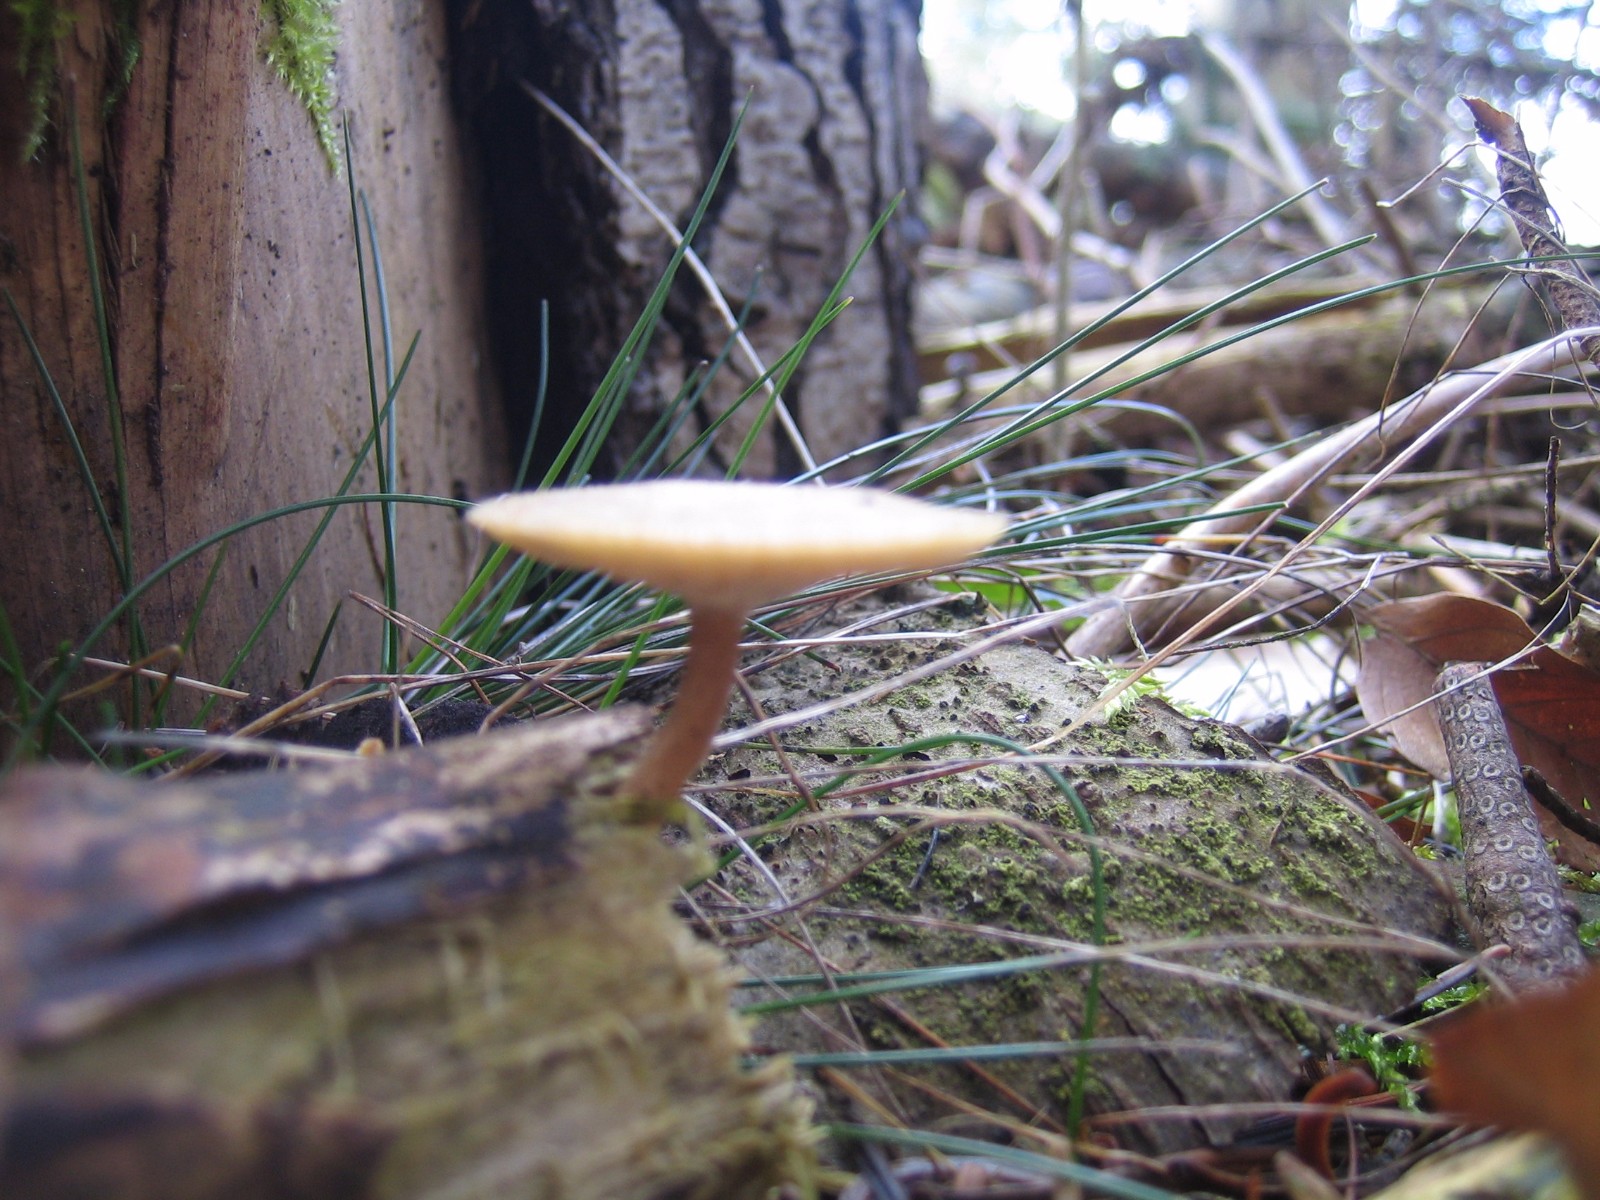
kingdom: Fungi
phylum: Basidiomycota
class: Agaricomycetes
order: Polyporales
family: Polyporaceae
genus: Lentinus
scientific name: Lentinus brumalis
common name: vinter-stilkporesvamp
